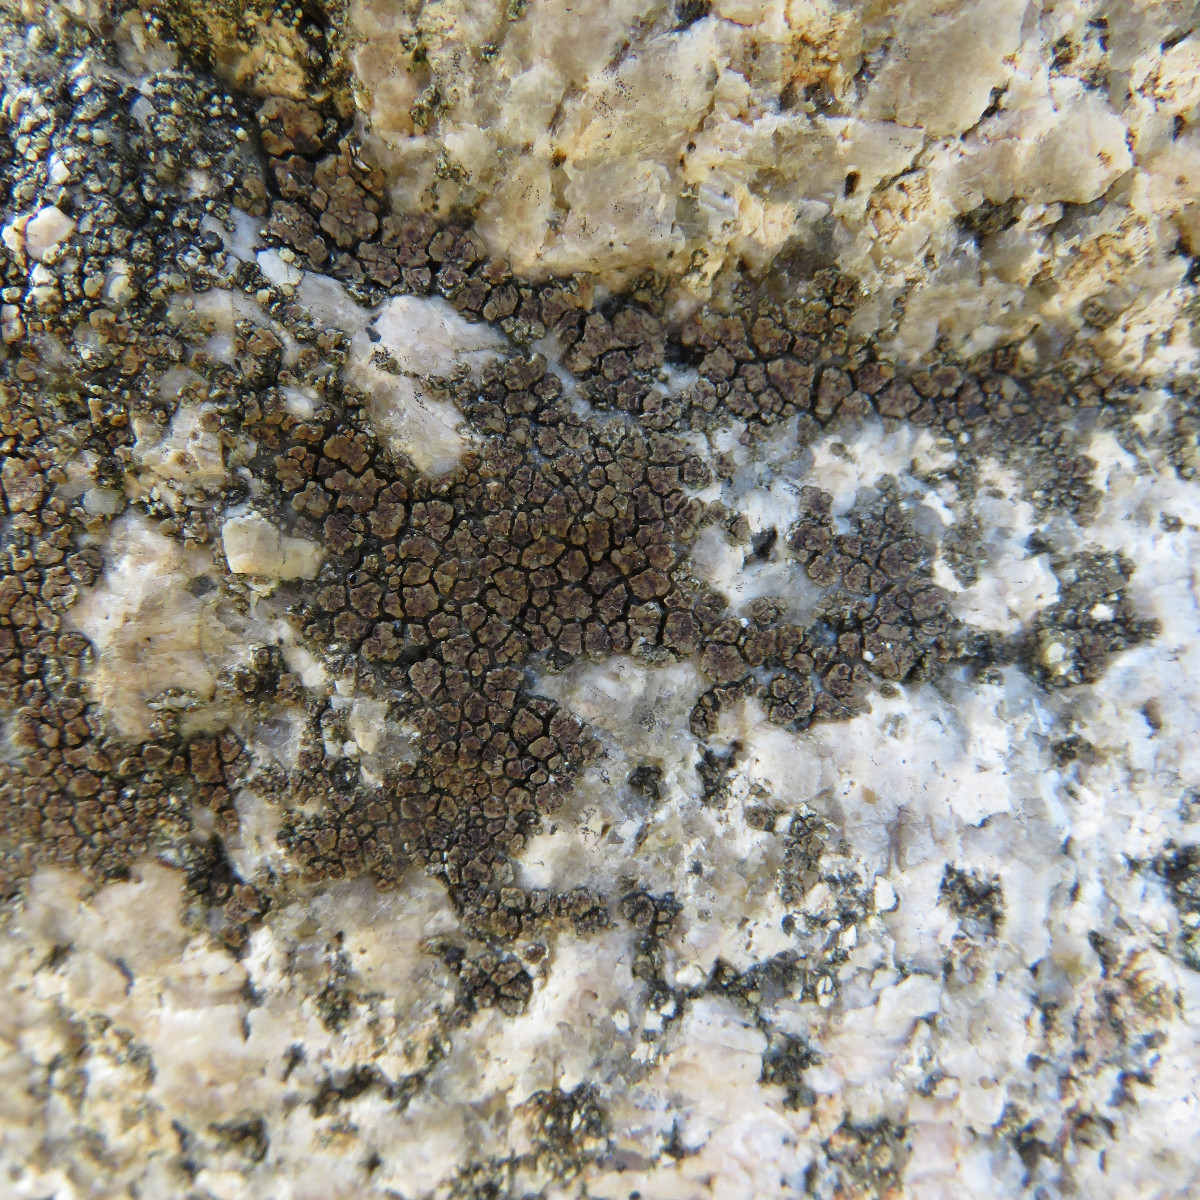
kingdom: Fungi
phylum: Ascomycota
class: Lecanoromycetes
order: Acarosporales
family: Acarosporaceae
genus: Acarospora
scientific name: Acarospora fuscata
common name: brun småsporelav
